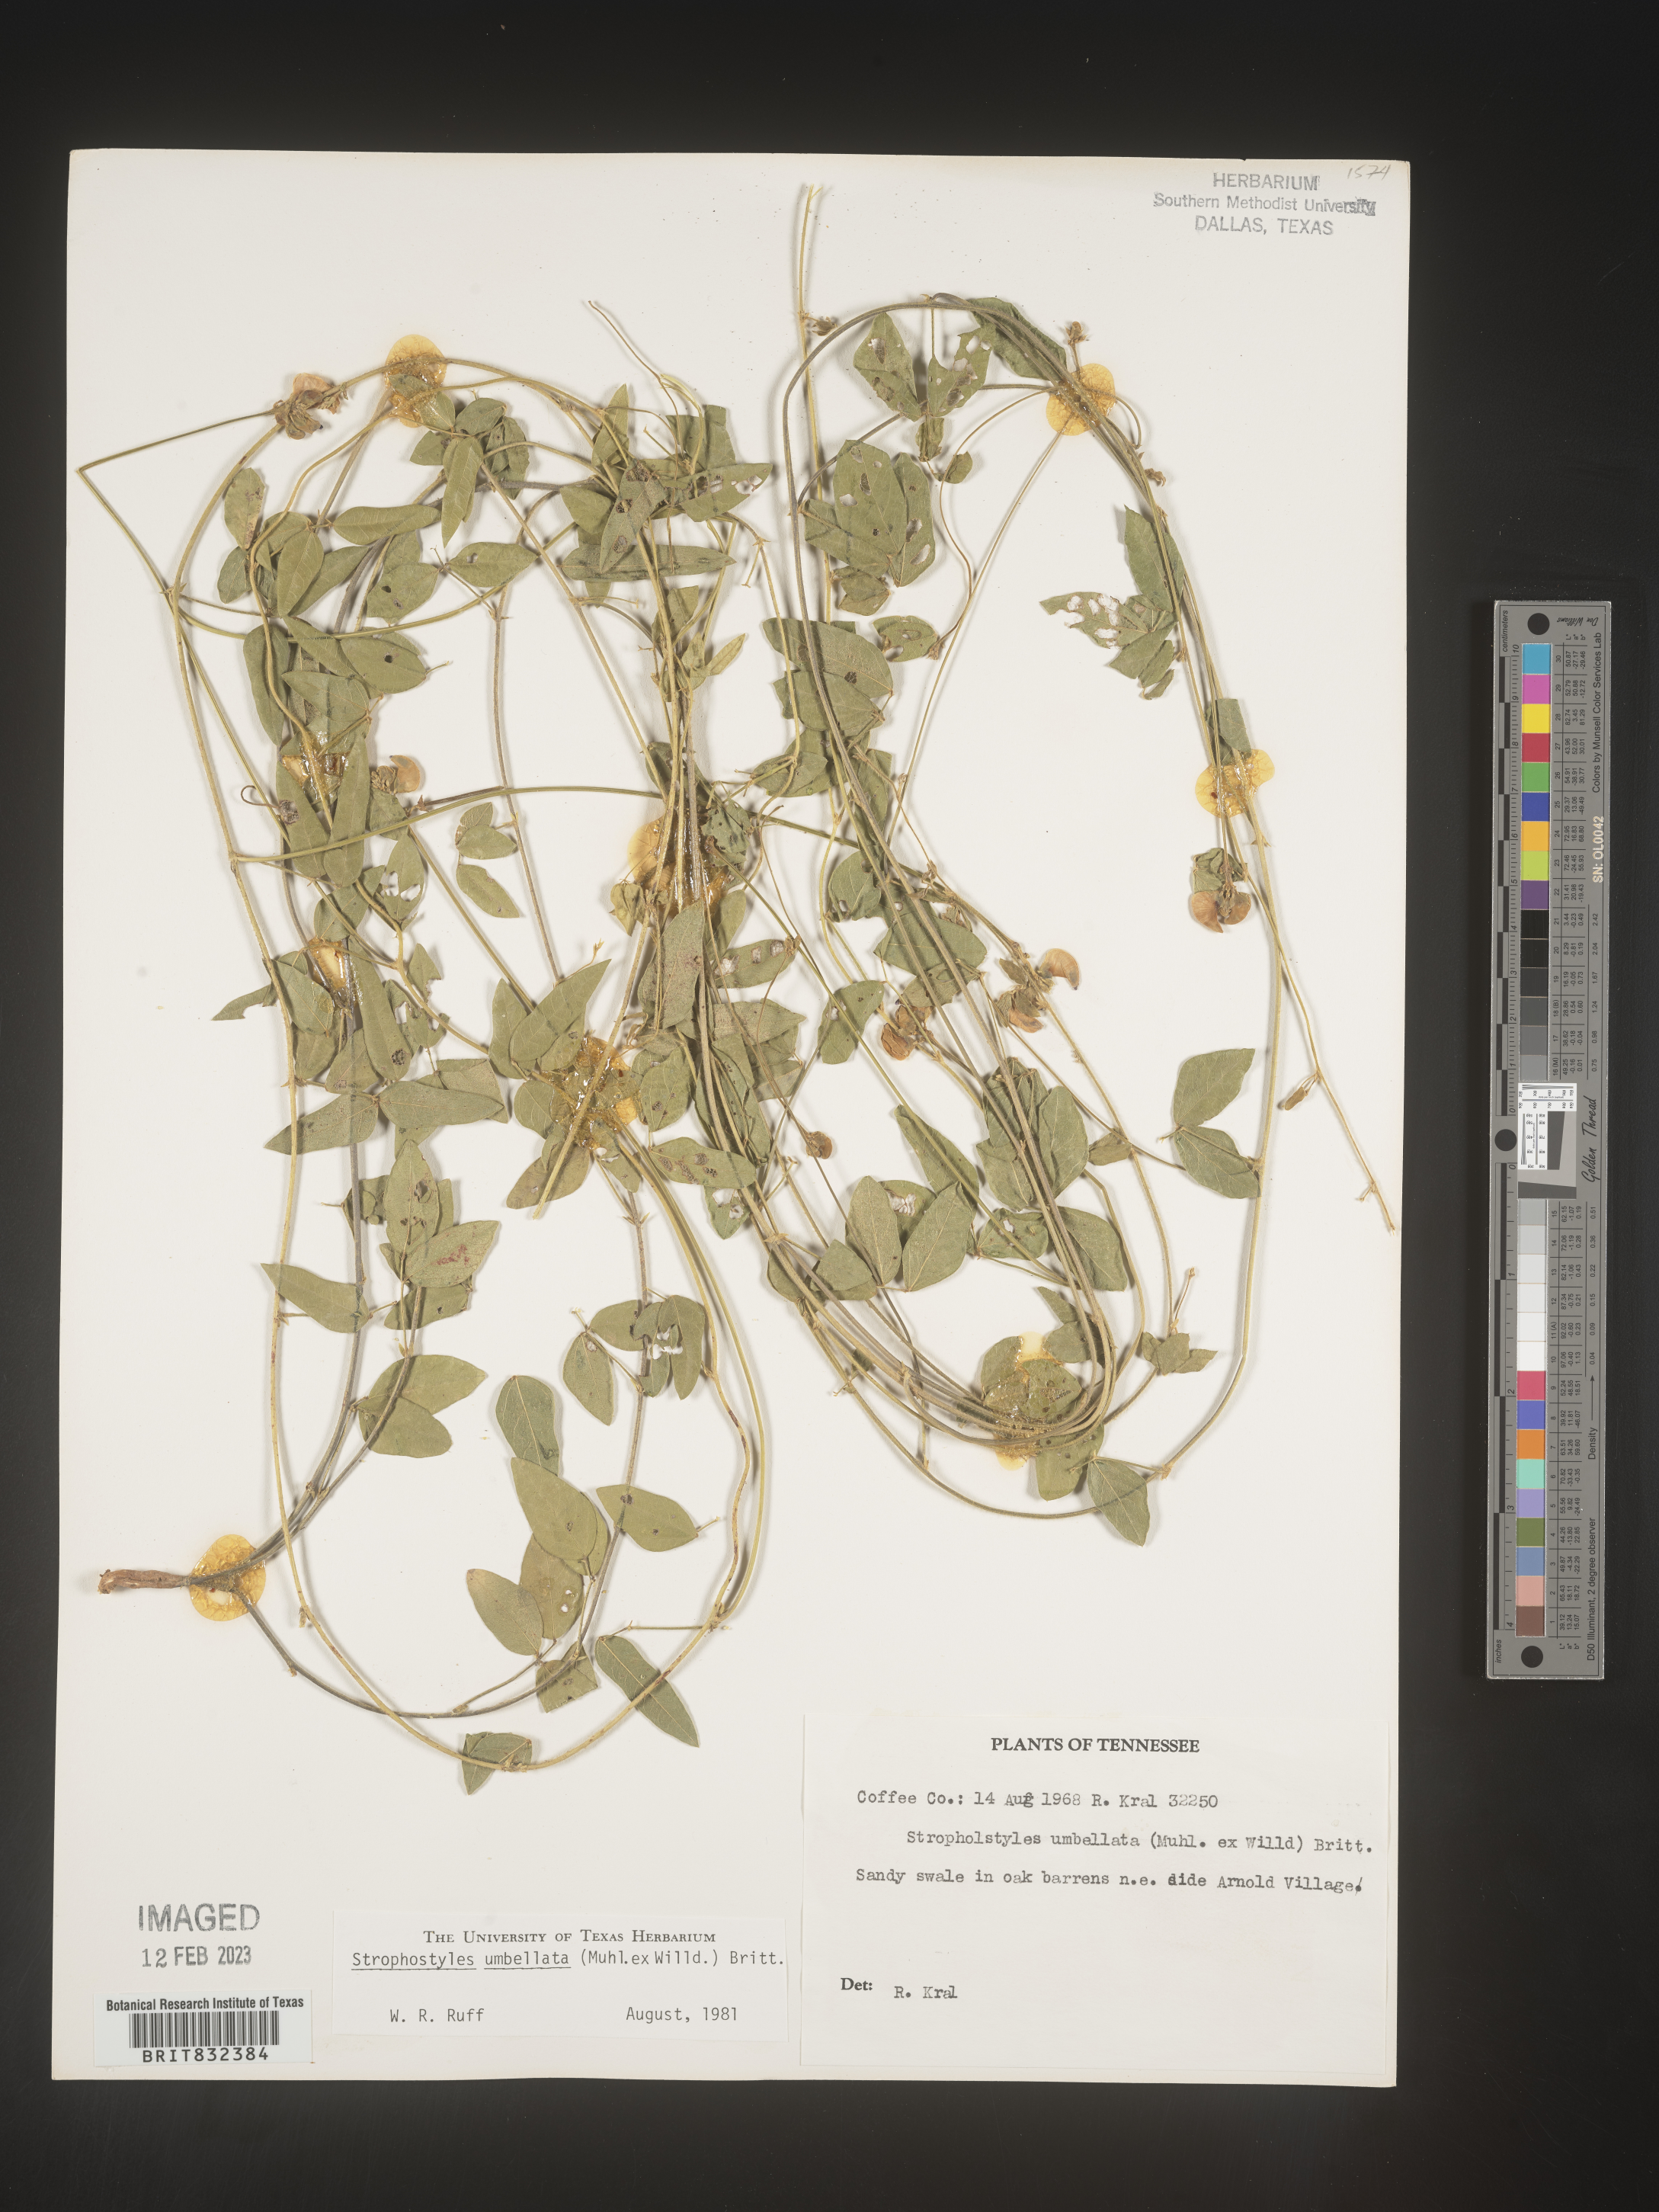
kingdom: Plantae
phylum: Tracheophyta
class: Magnoliopsida
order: Fabales
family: Fabaceae
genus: Strophostyles
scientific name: Strophostyles umbellata
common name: Perennial wild bean
